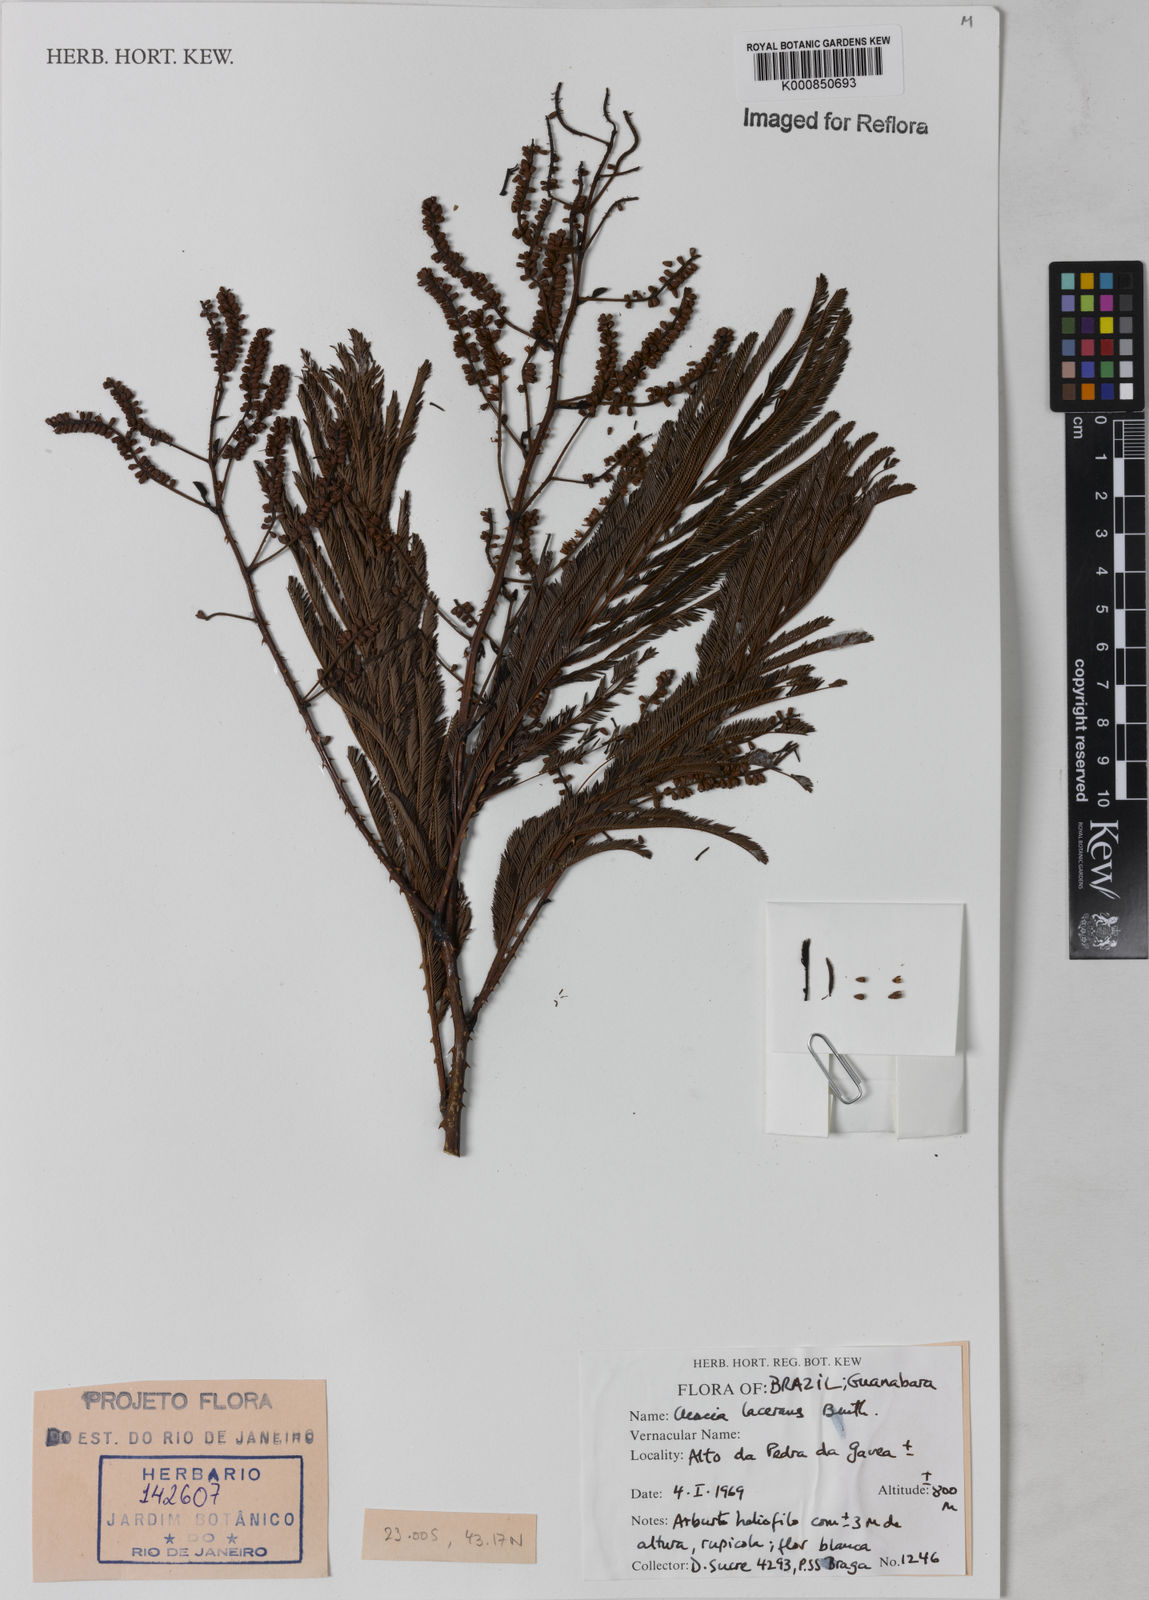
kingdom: Plantae
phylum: Tracheophyta
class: Magnoliopsida
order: Fabales
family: Fabaceae
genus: Senegalia
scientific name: Senegalia lacerans
